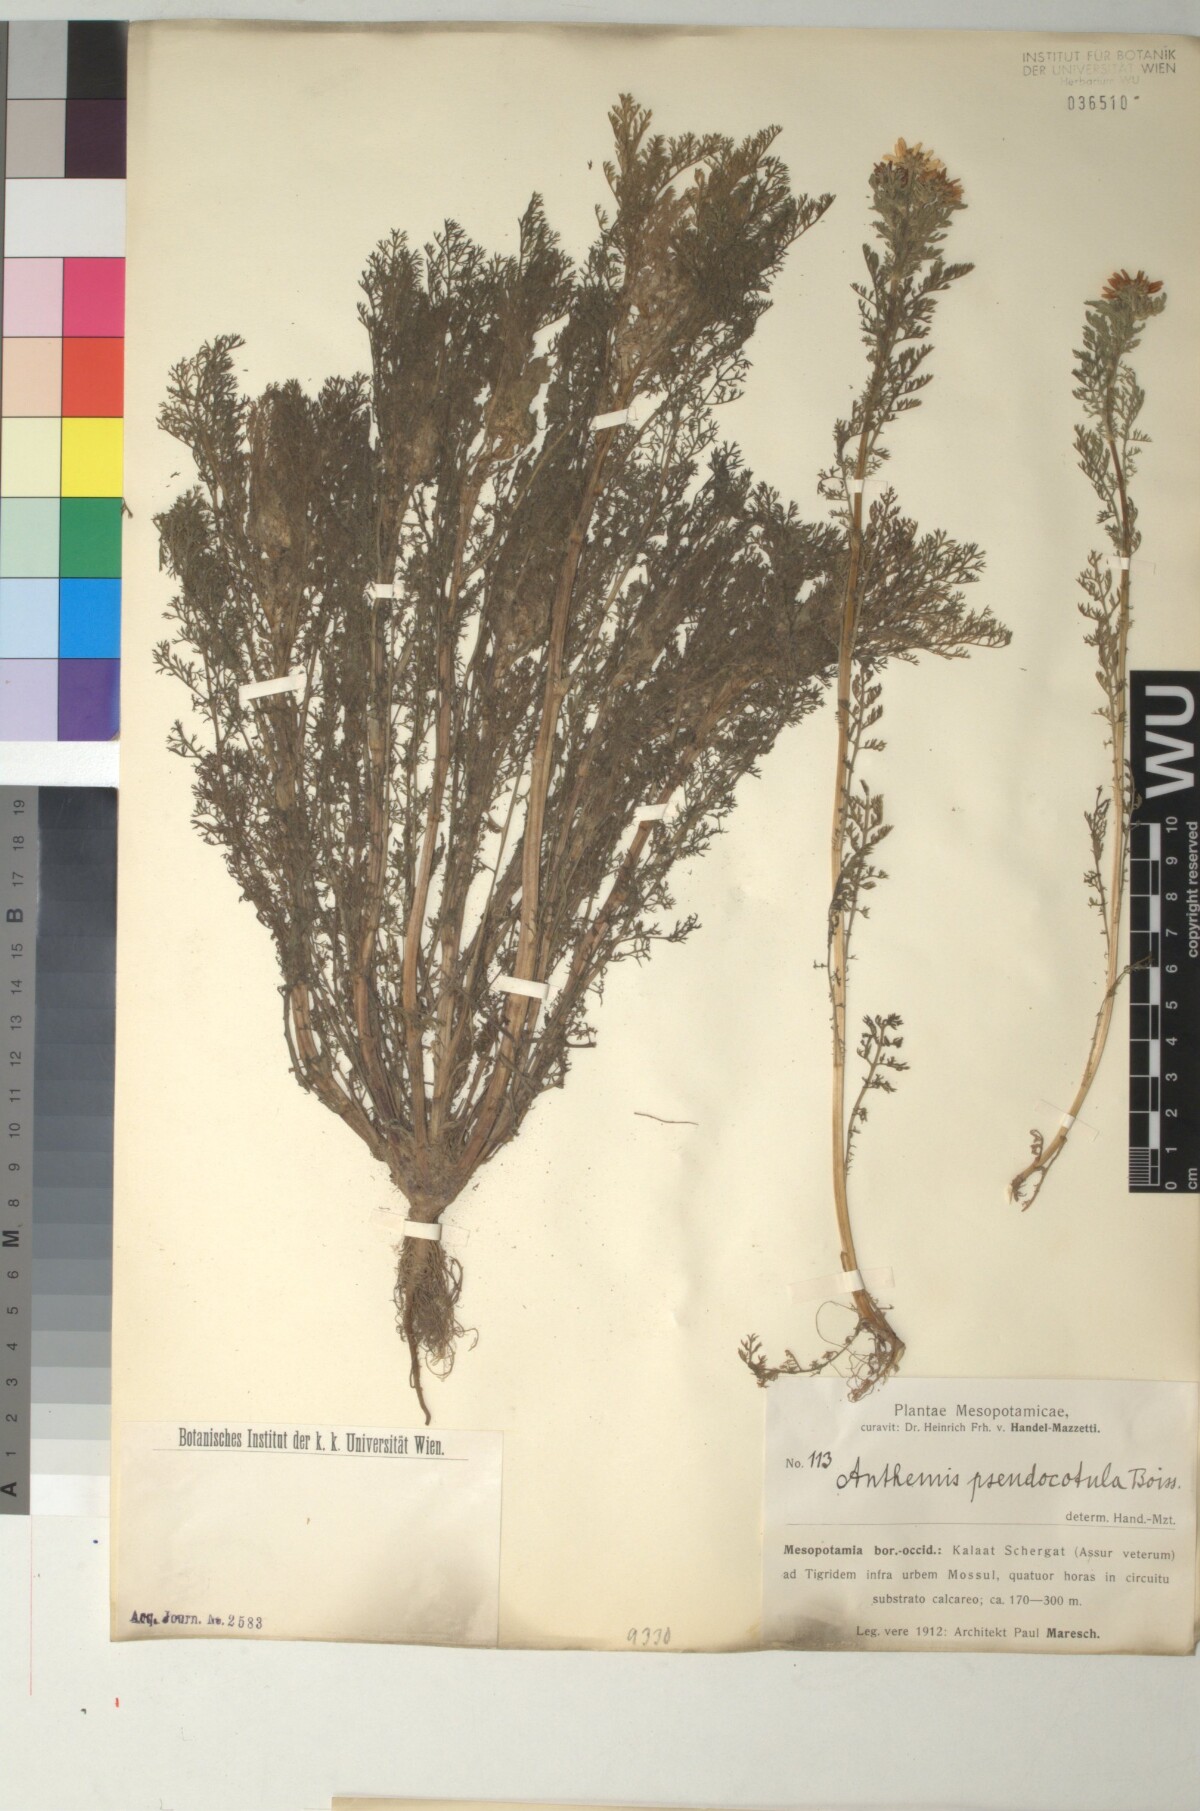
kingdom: Plantae
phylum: Tracheophyta
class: Magnoliopsida
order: Asterales
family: Asteraceae
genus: Anthemis
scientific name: Anthemis pseudocotula
